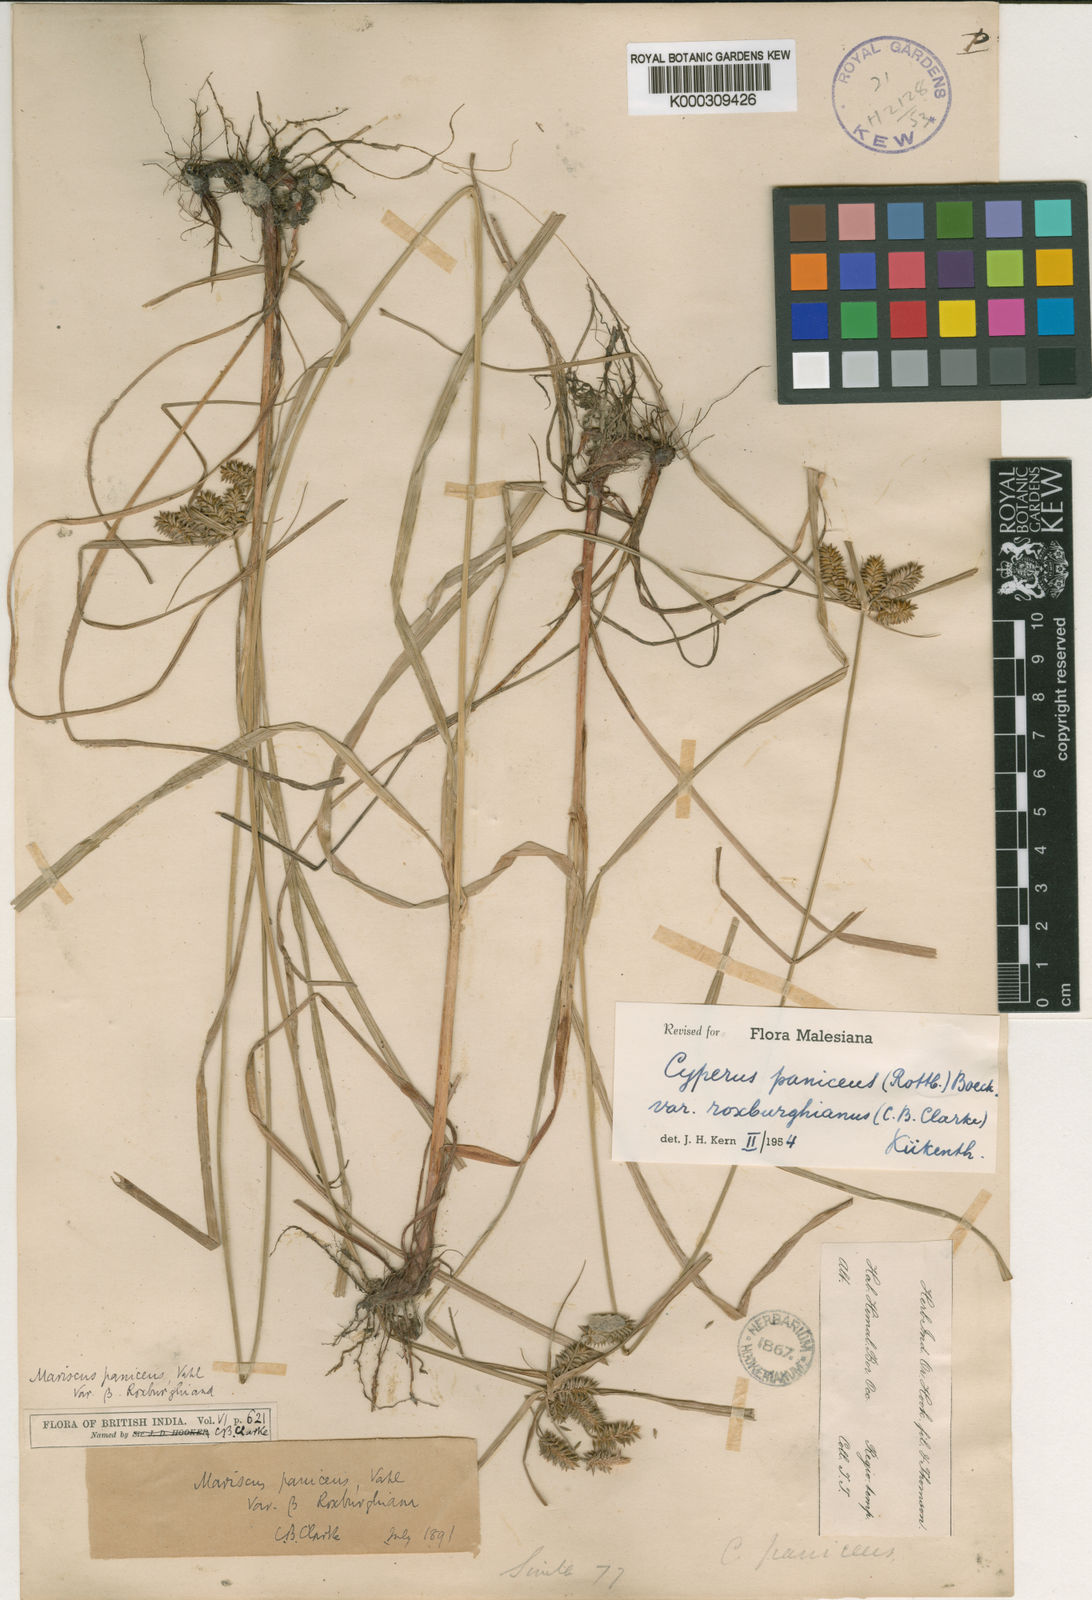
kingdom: Plantae
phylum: Tracheophyta
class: Liliopsida
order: Poales
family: Cyperaceae
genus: Cyperus
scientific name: Cyperus paniceus
